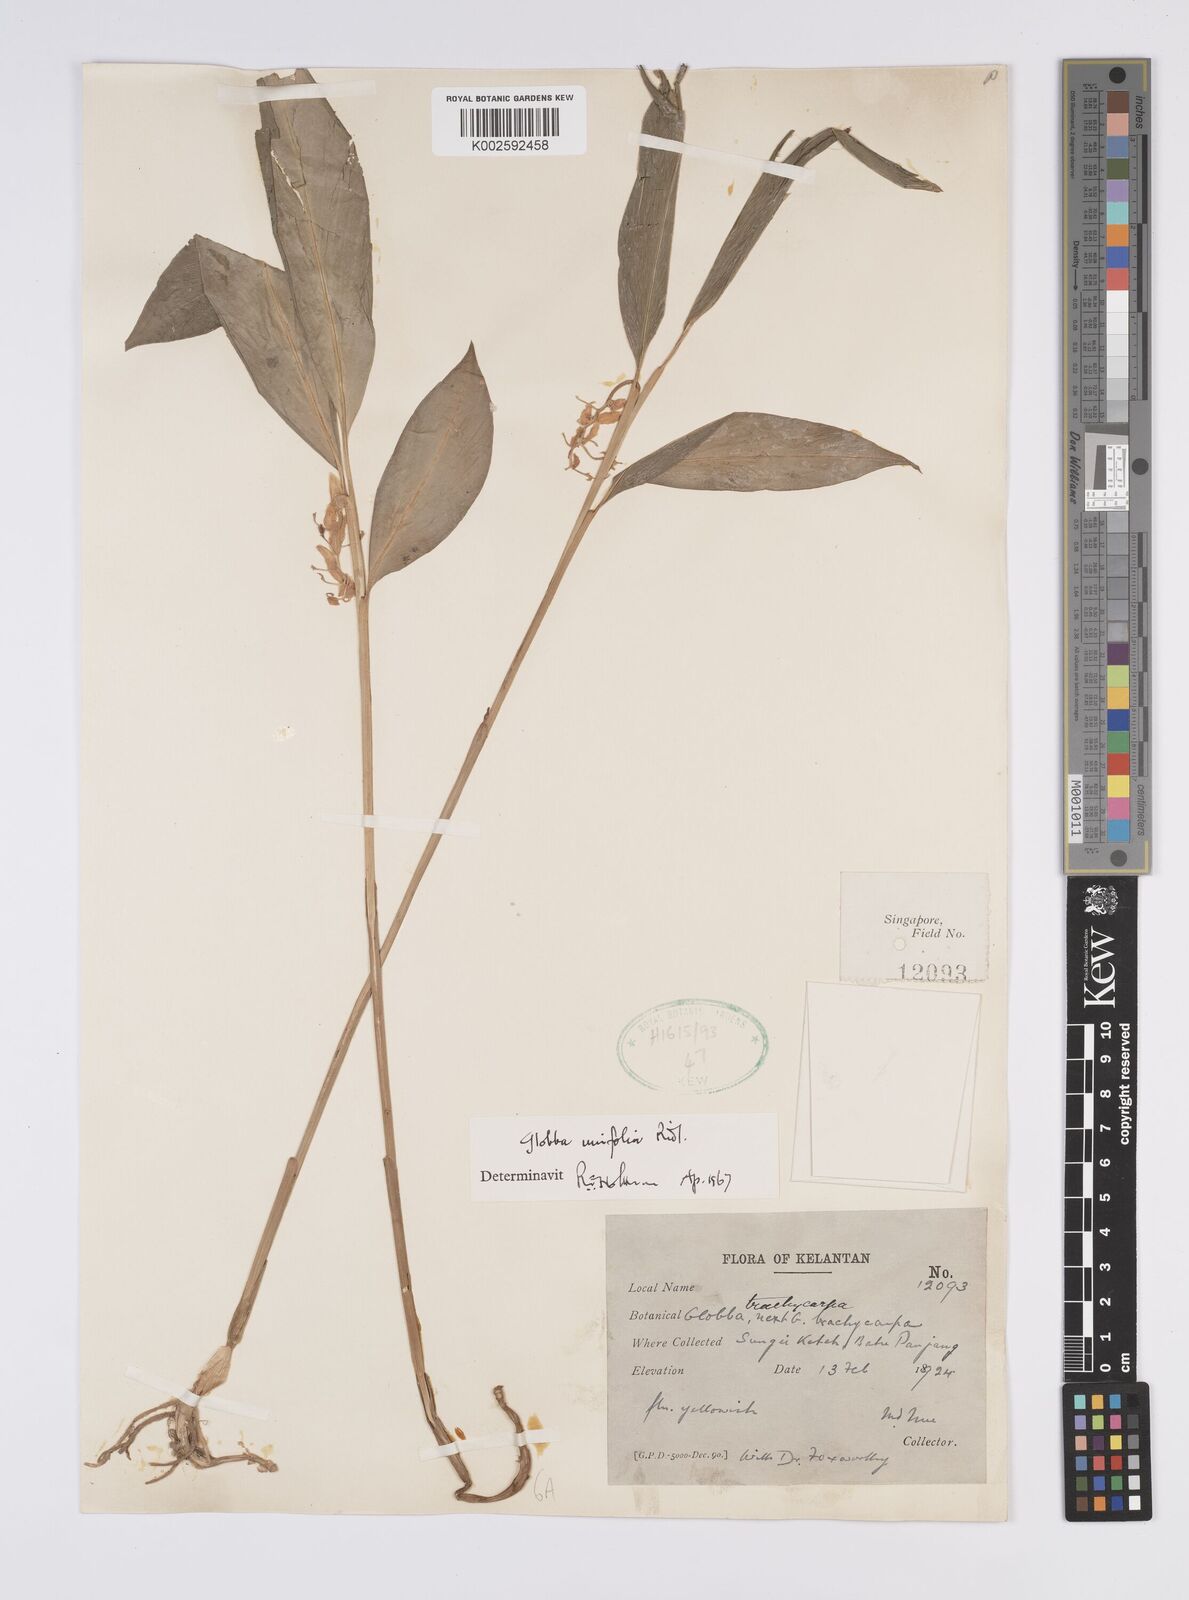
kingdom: Plantae
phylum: Tracheophyta
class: Liliopsida
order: Zingiberales
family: Zingiberaceae
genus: Globba
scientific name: Globba unifolia
